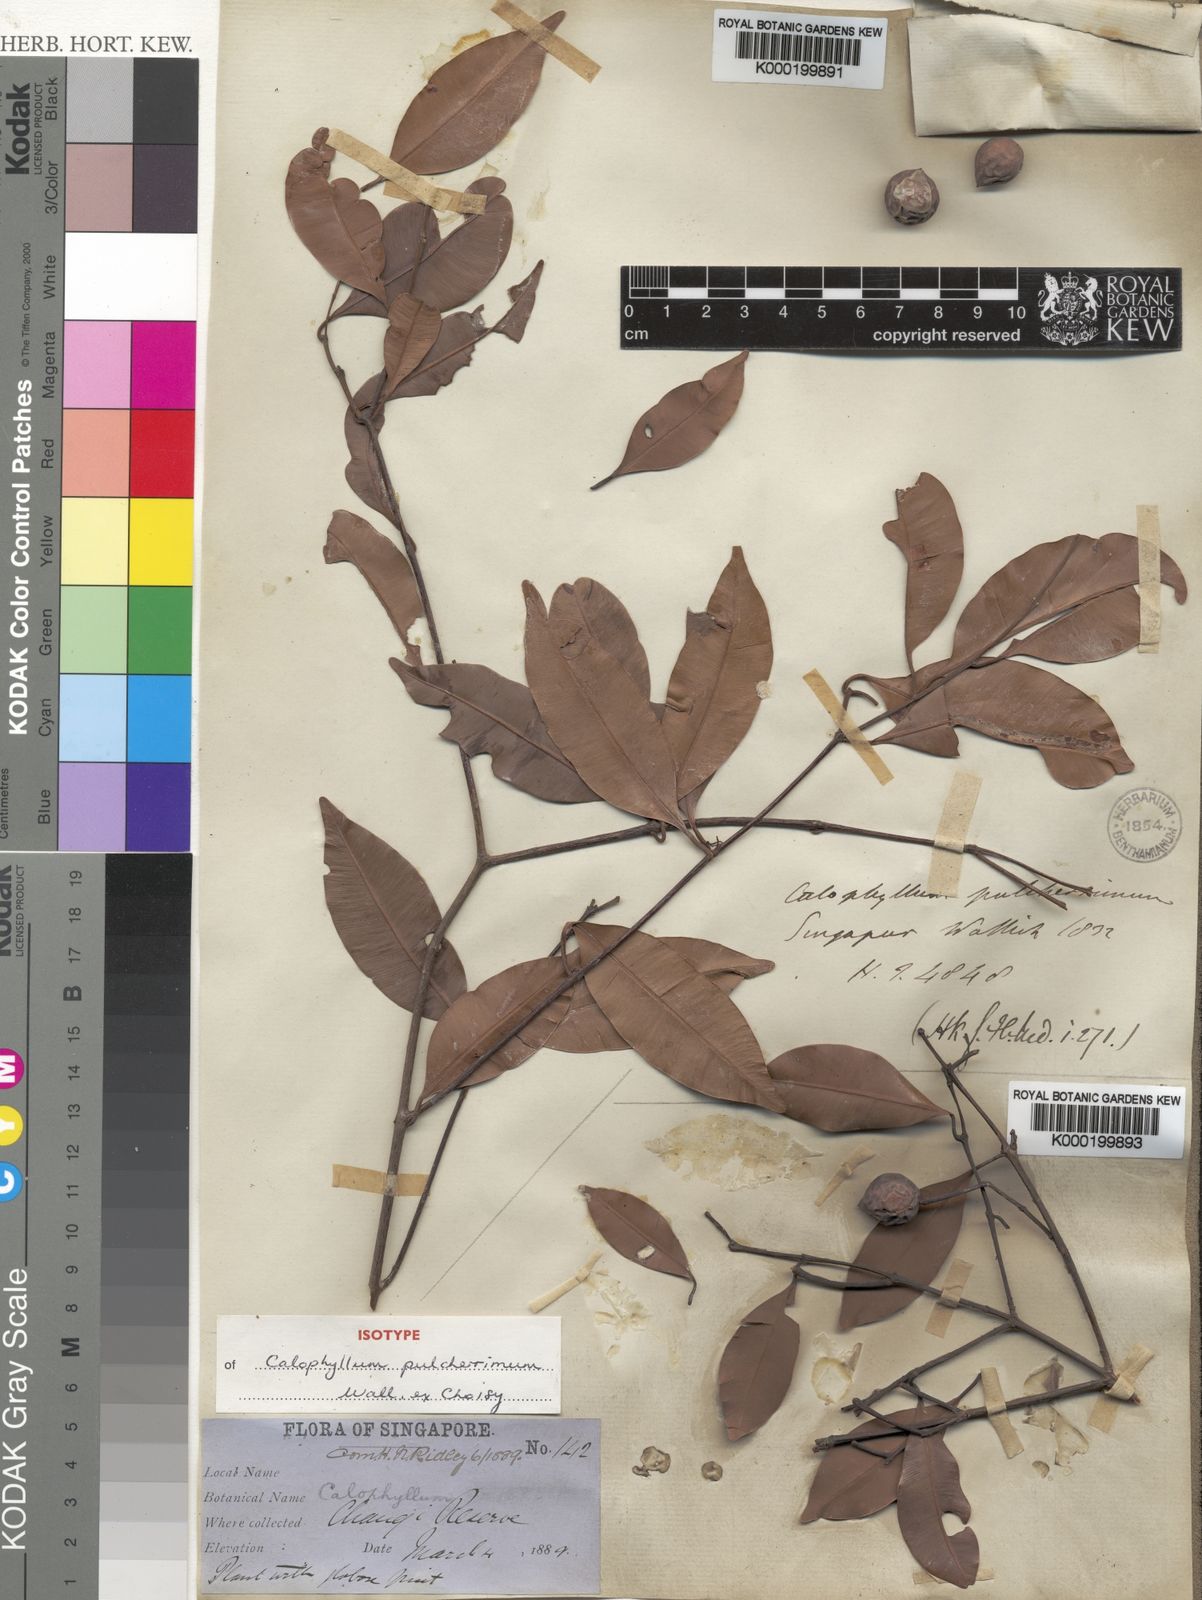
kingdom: Plantae
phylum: Tracheophyta
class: Magnoliopsida
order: Malpighiales
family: Calophyllaceae
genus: Calophyllum
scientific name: Calophyllum pulcherrimum
